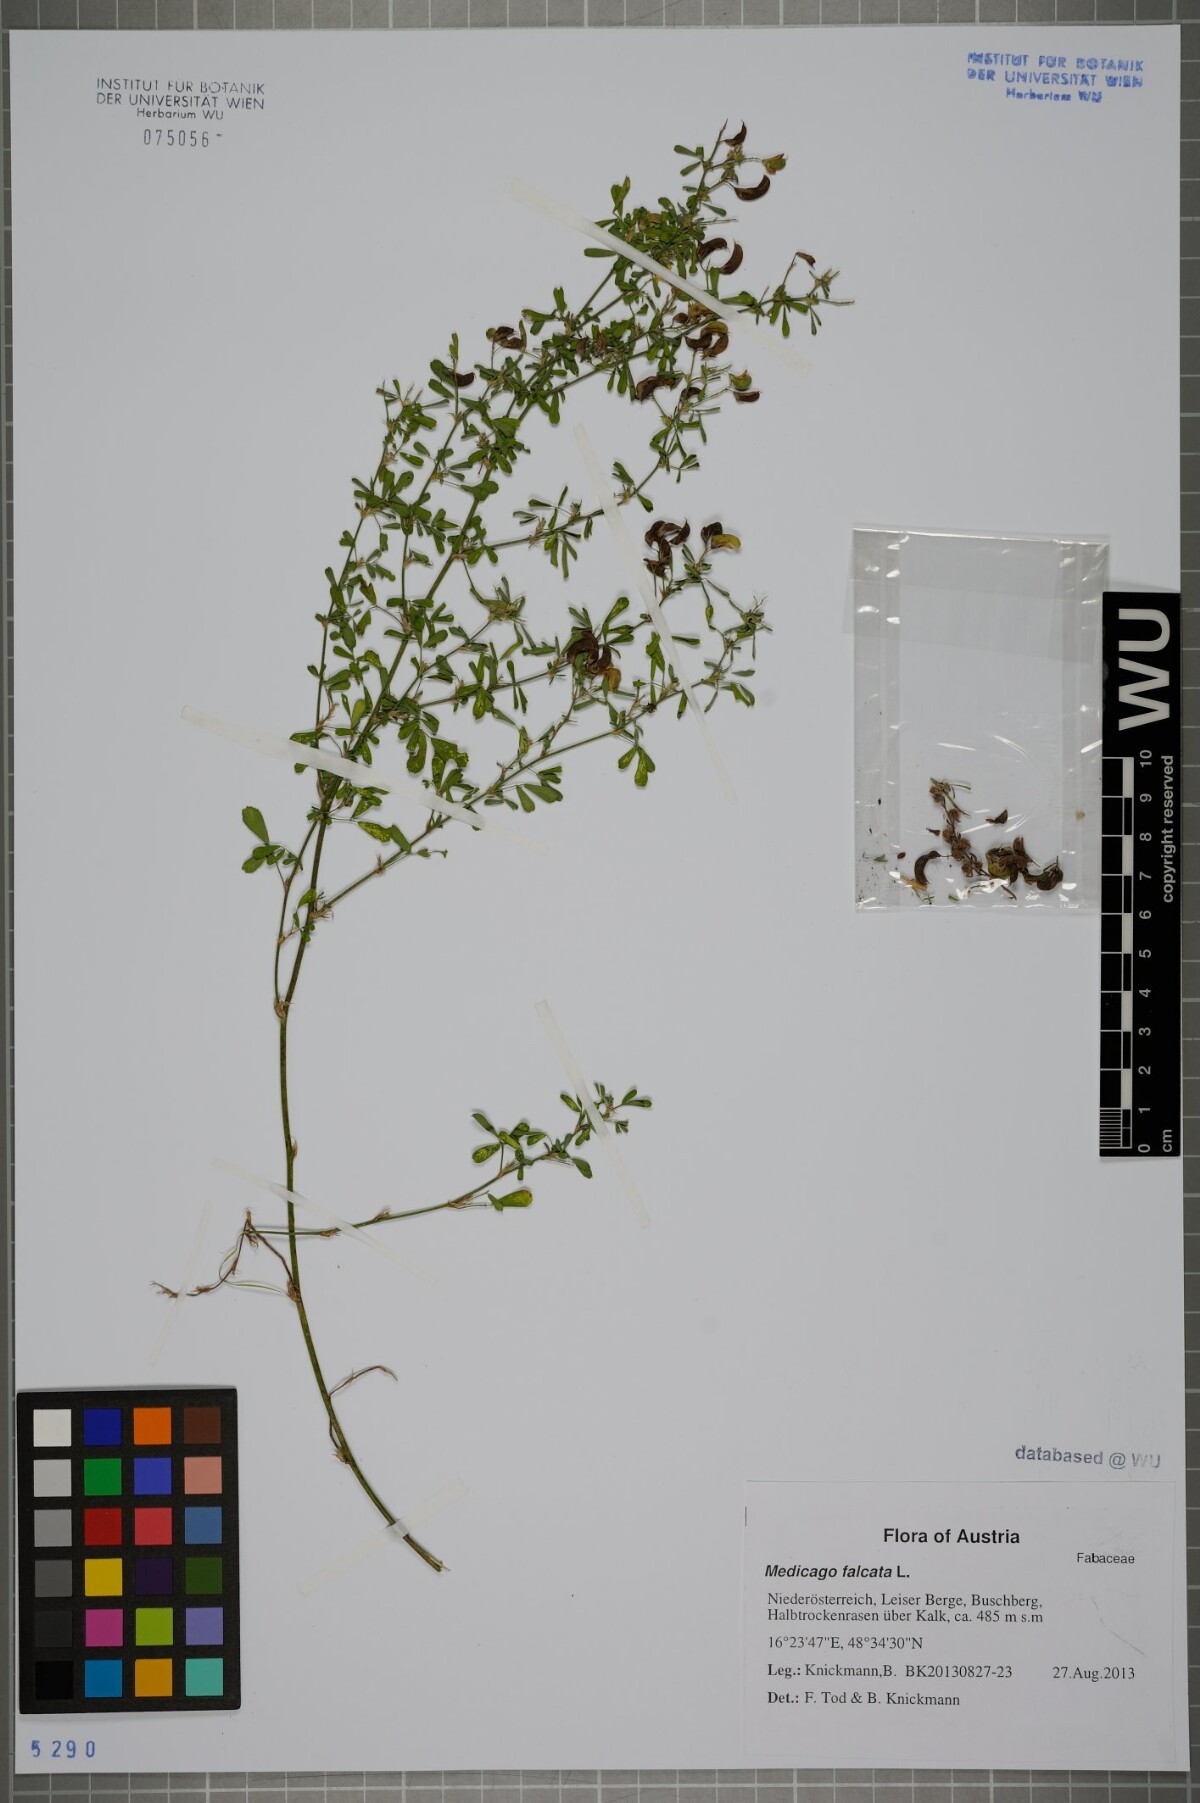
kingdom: Plantae
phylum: Tracheophyta
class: Magnoliopsida
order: Fabales
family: Fabaceae
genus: Medicago
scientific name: Medicago falcata
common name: Sickle medick
